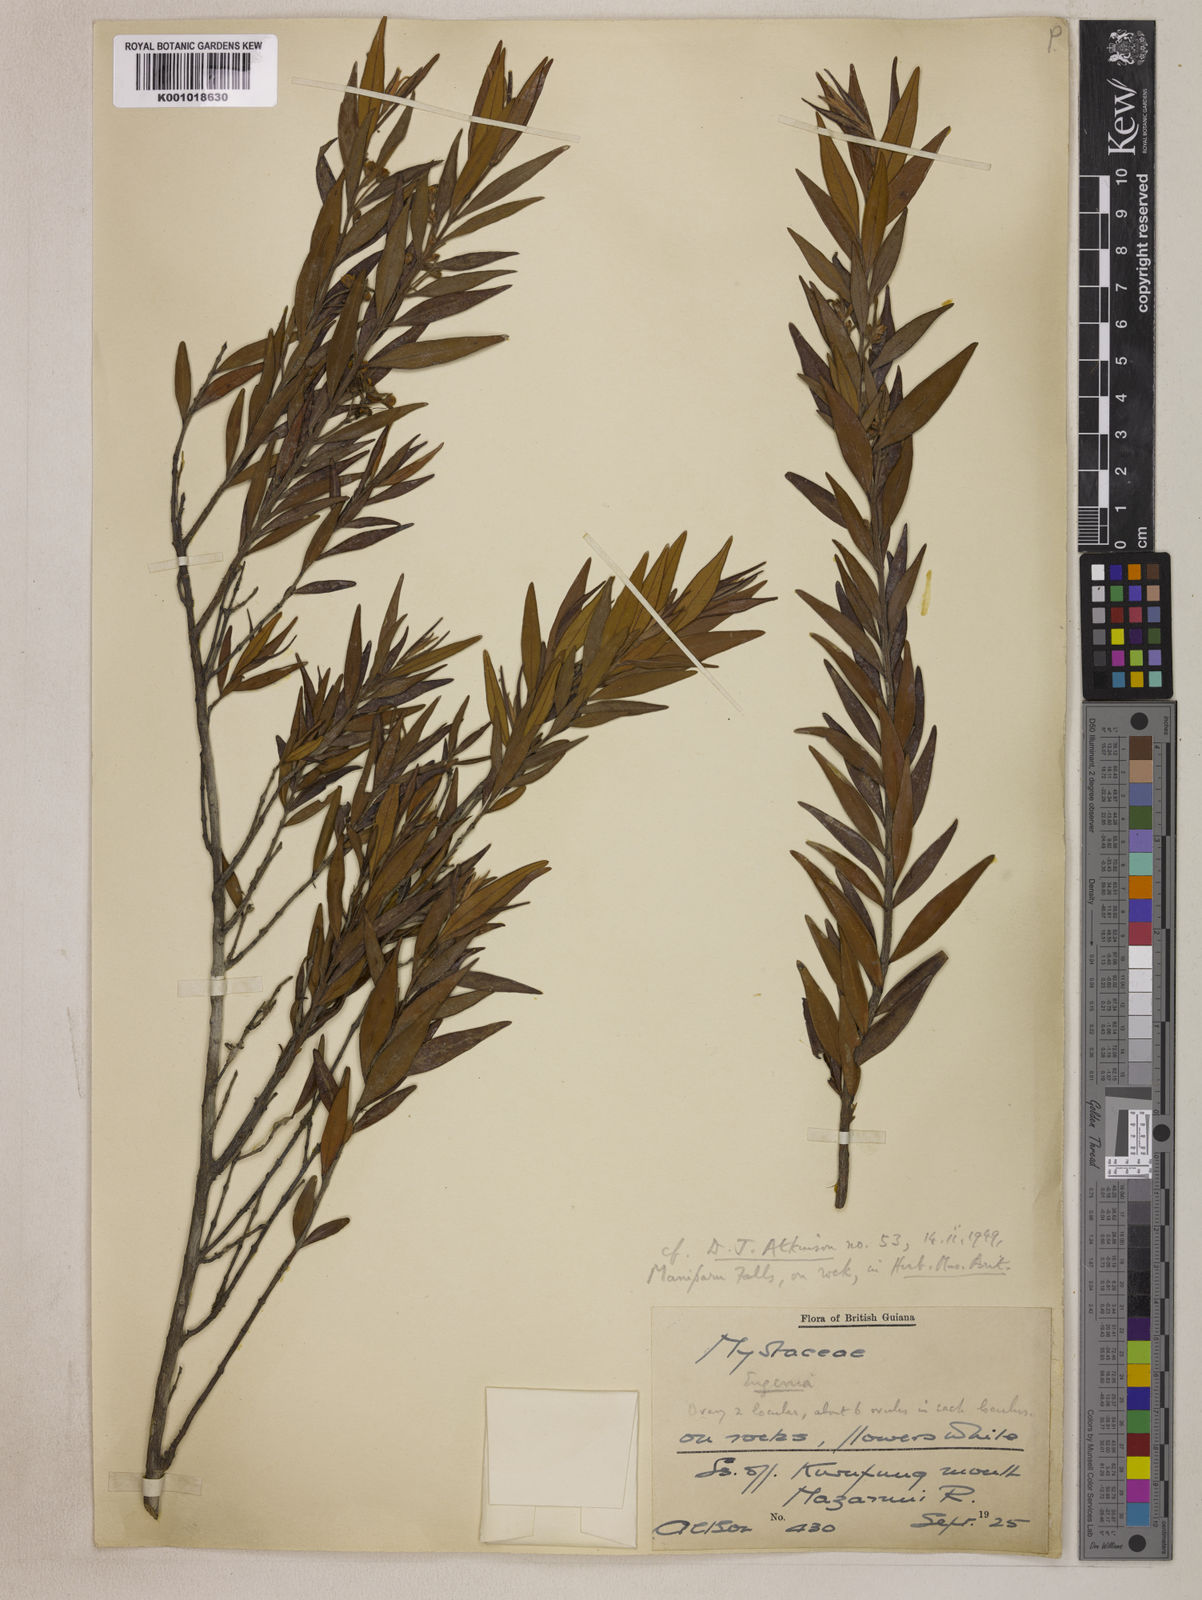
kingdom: Plantae
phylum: Tracheophyta
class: Magnoliopsida
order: Myrtales
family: Myrtaceae
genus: Eugenia
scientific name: Eugenia biflora
